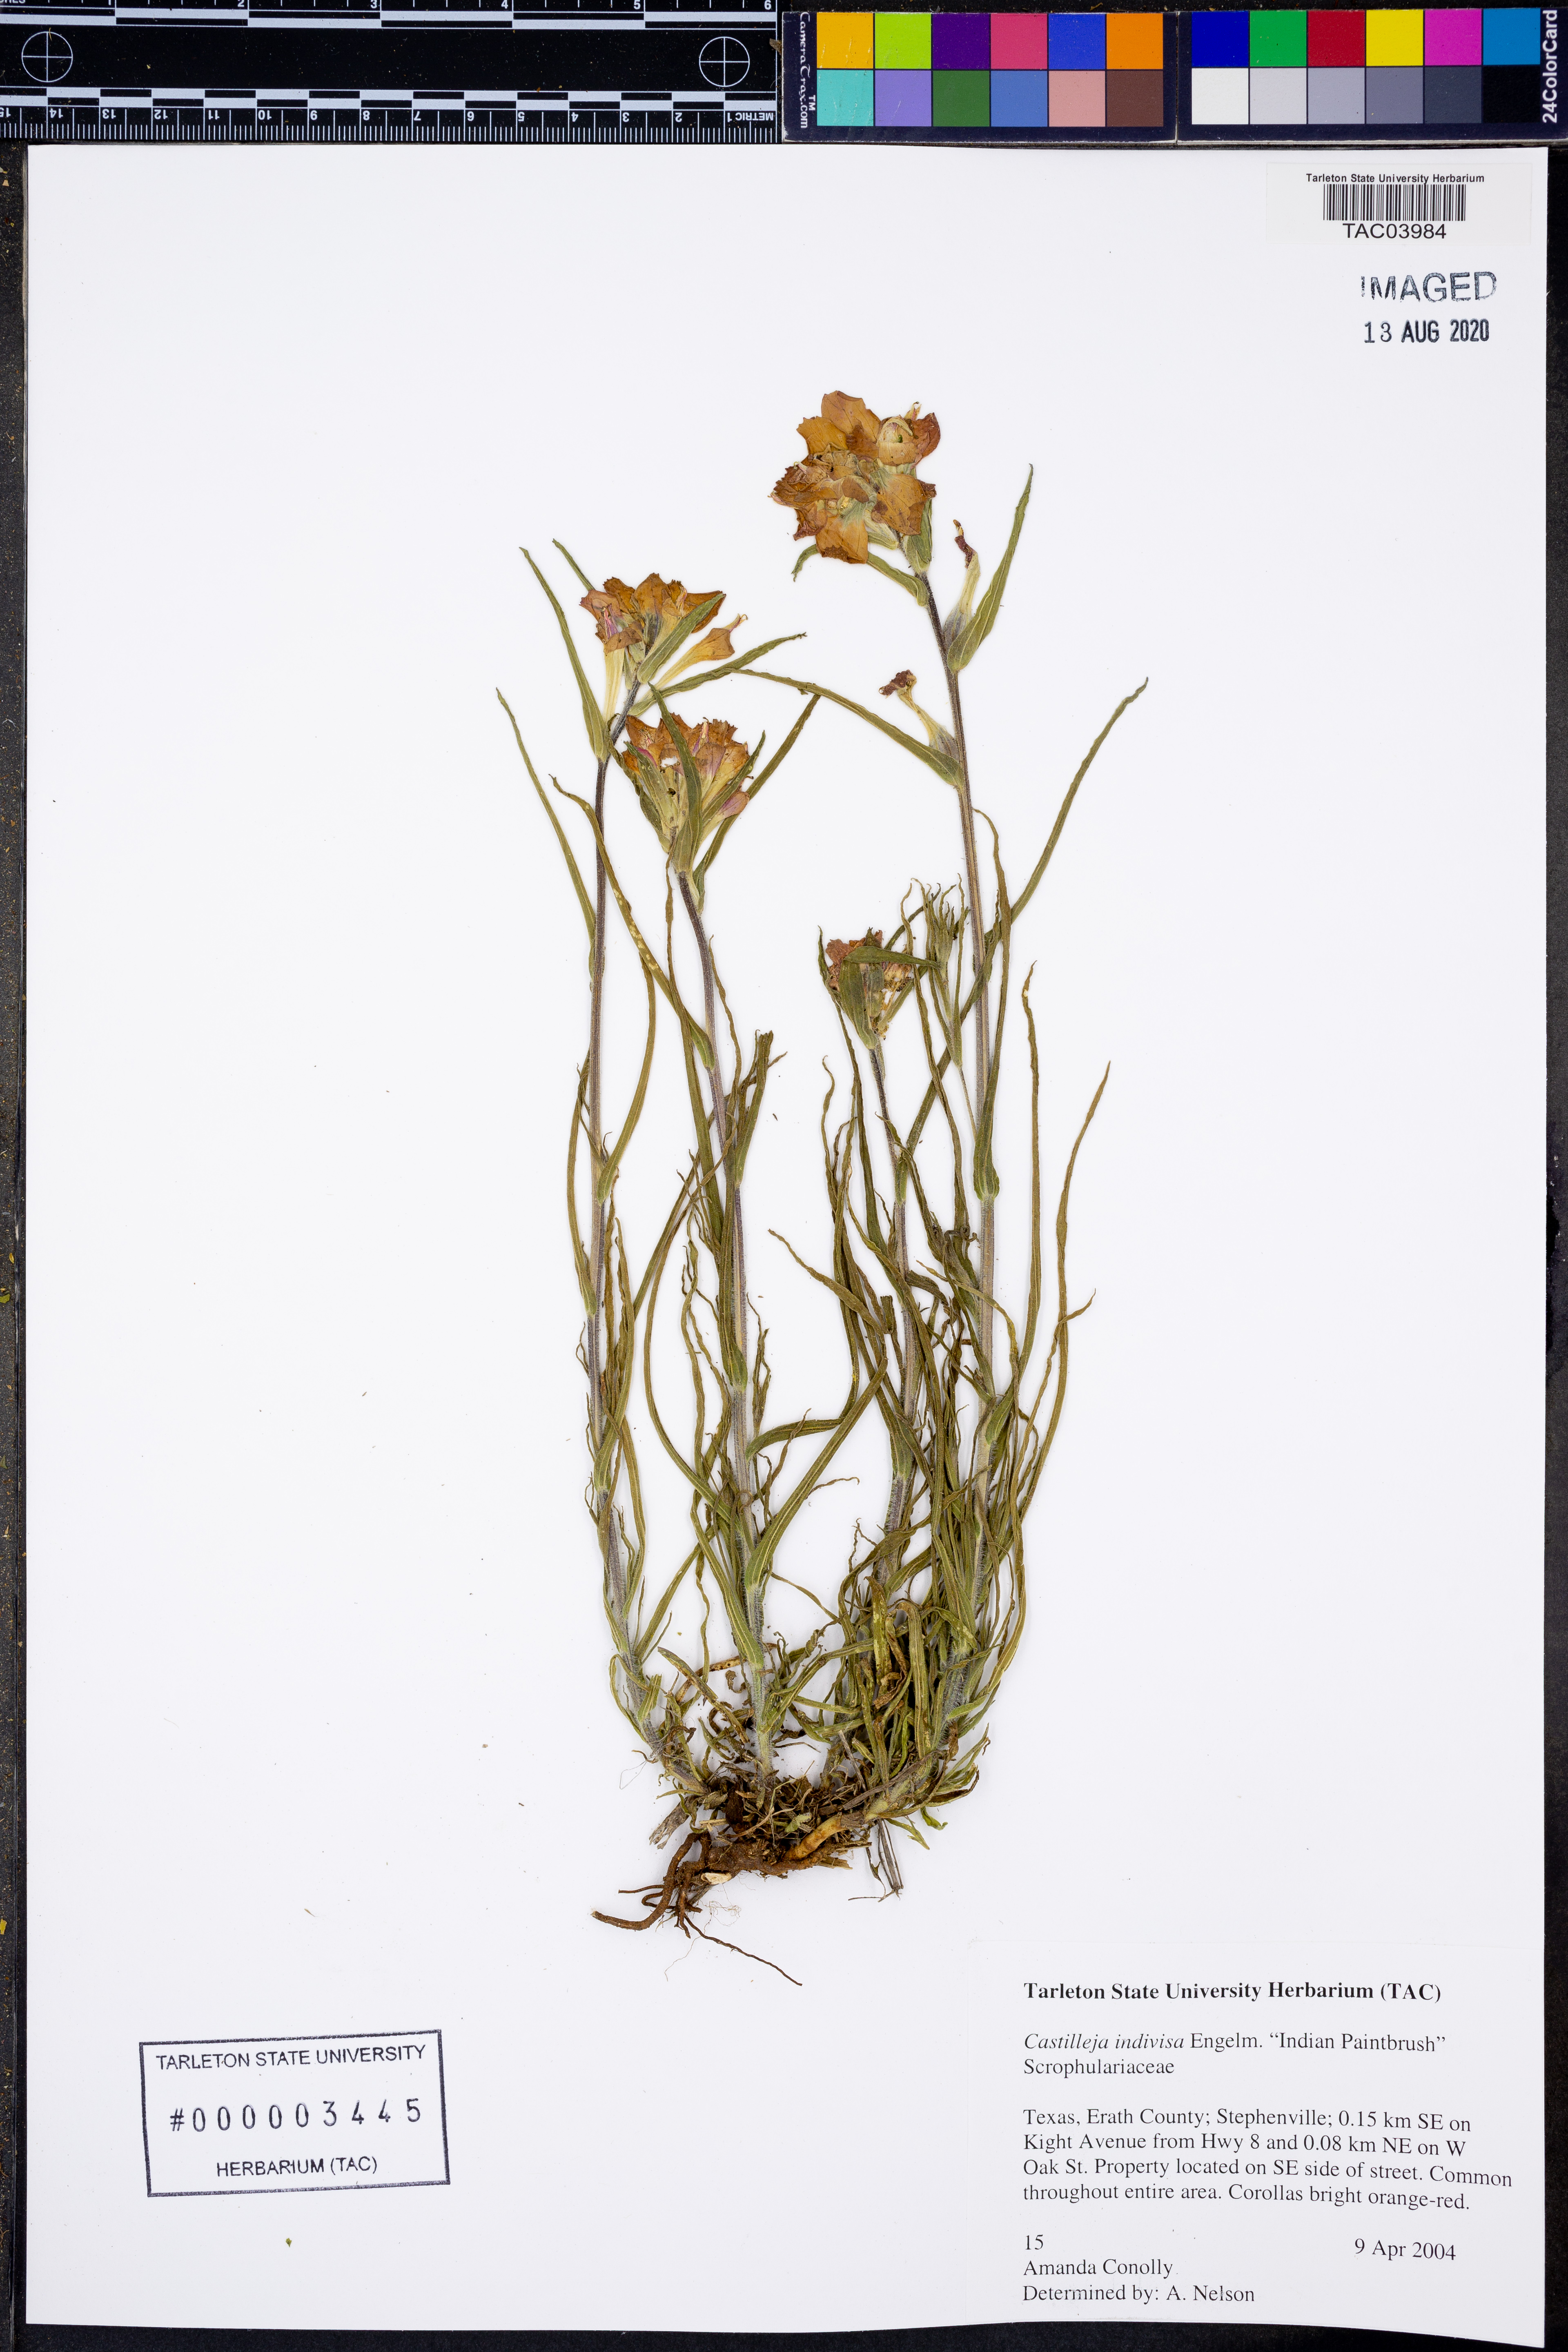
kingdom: Plantae
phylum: Tracheophyta
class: Magnoliopsida
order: Lamiales
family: Orobanchaceae
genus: Castilleja
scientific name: Castilleja indivisa
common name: Texas paintbrush
